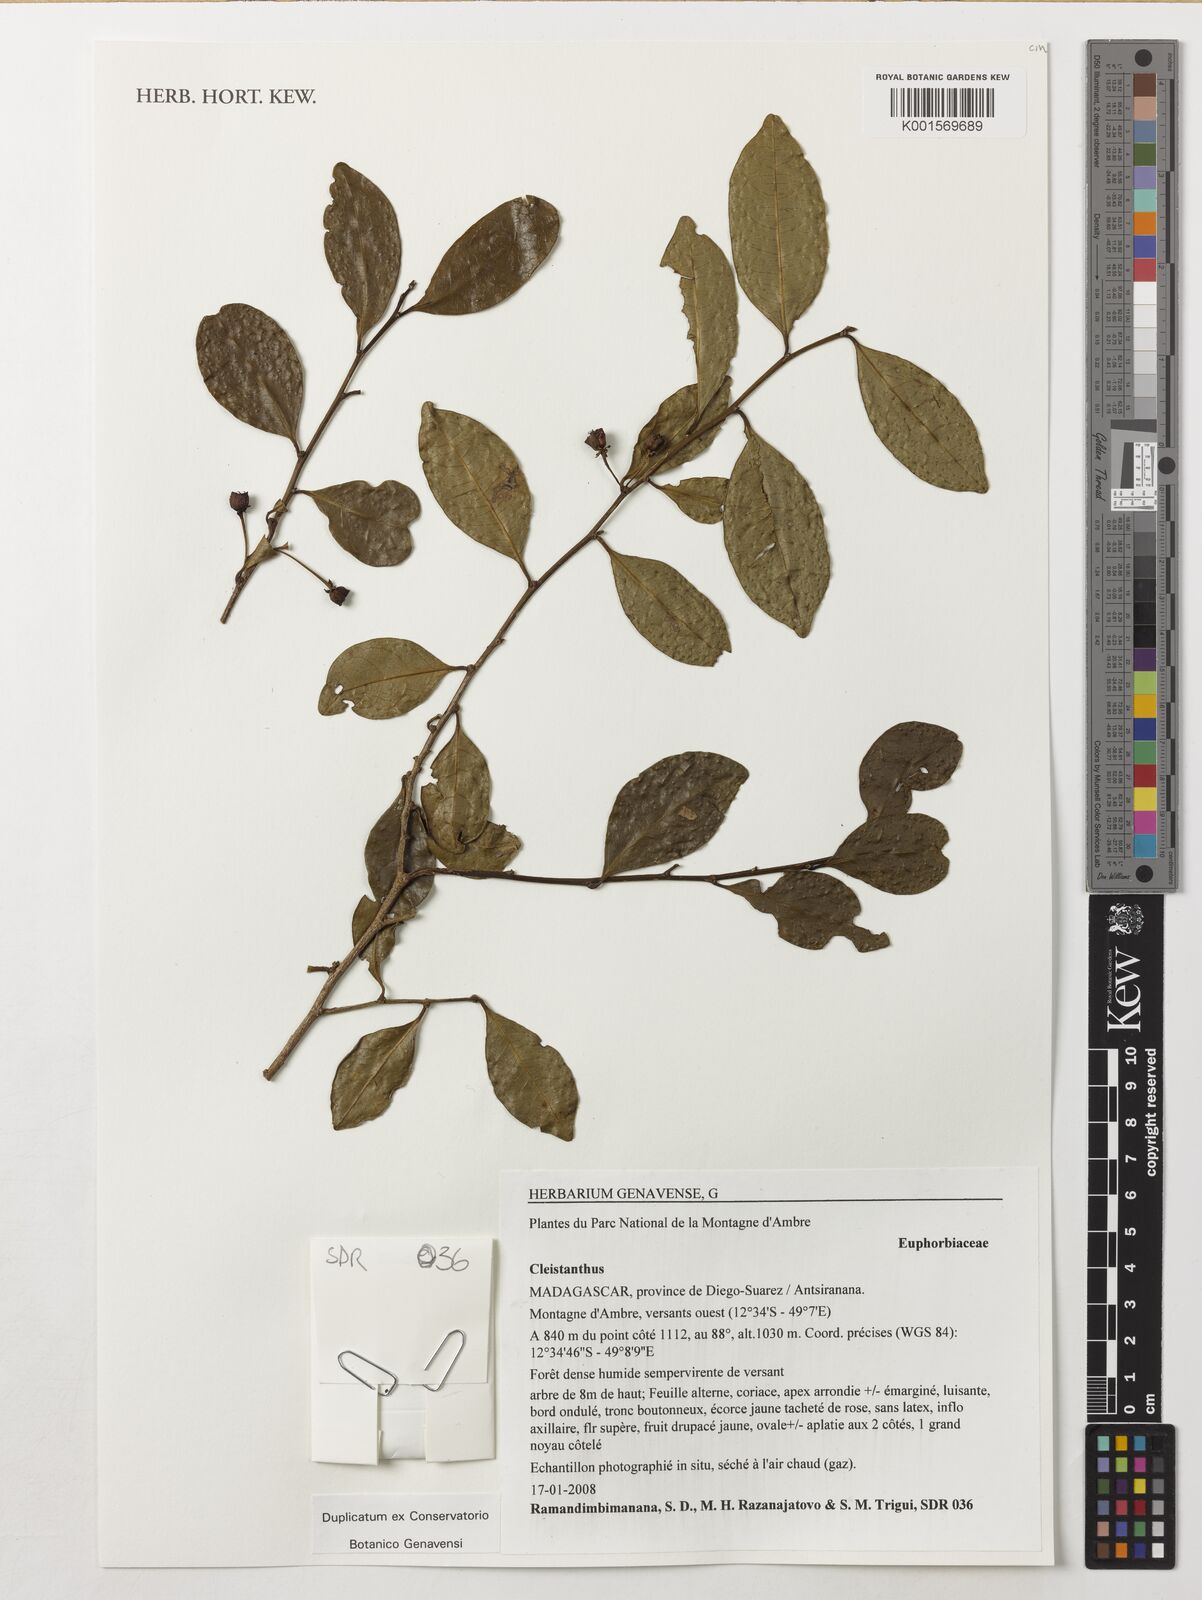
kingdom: Plantae
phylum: Tracheophyta
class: Magnoliopsida
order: Malpighiales
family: Phyllanthaceae
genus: Cleistanthus
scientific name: Cleistanthus
